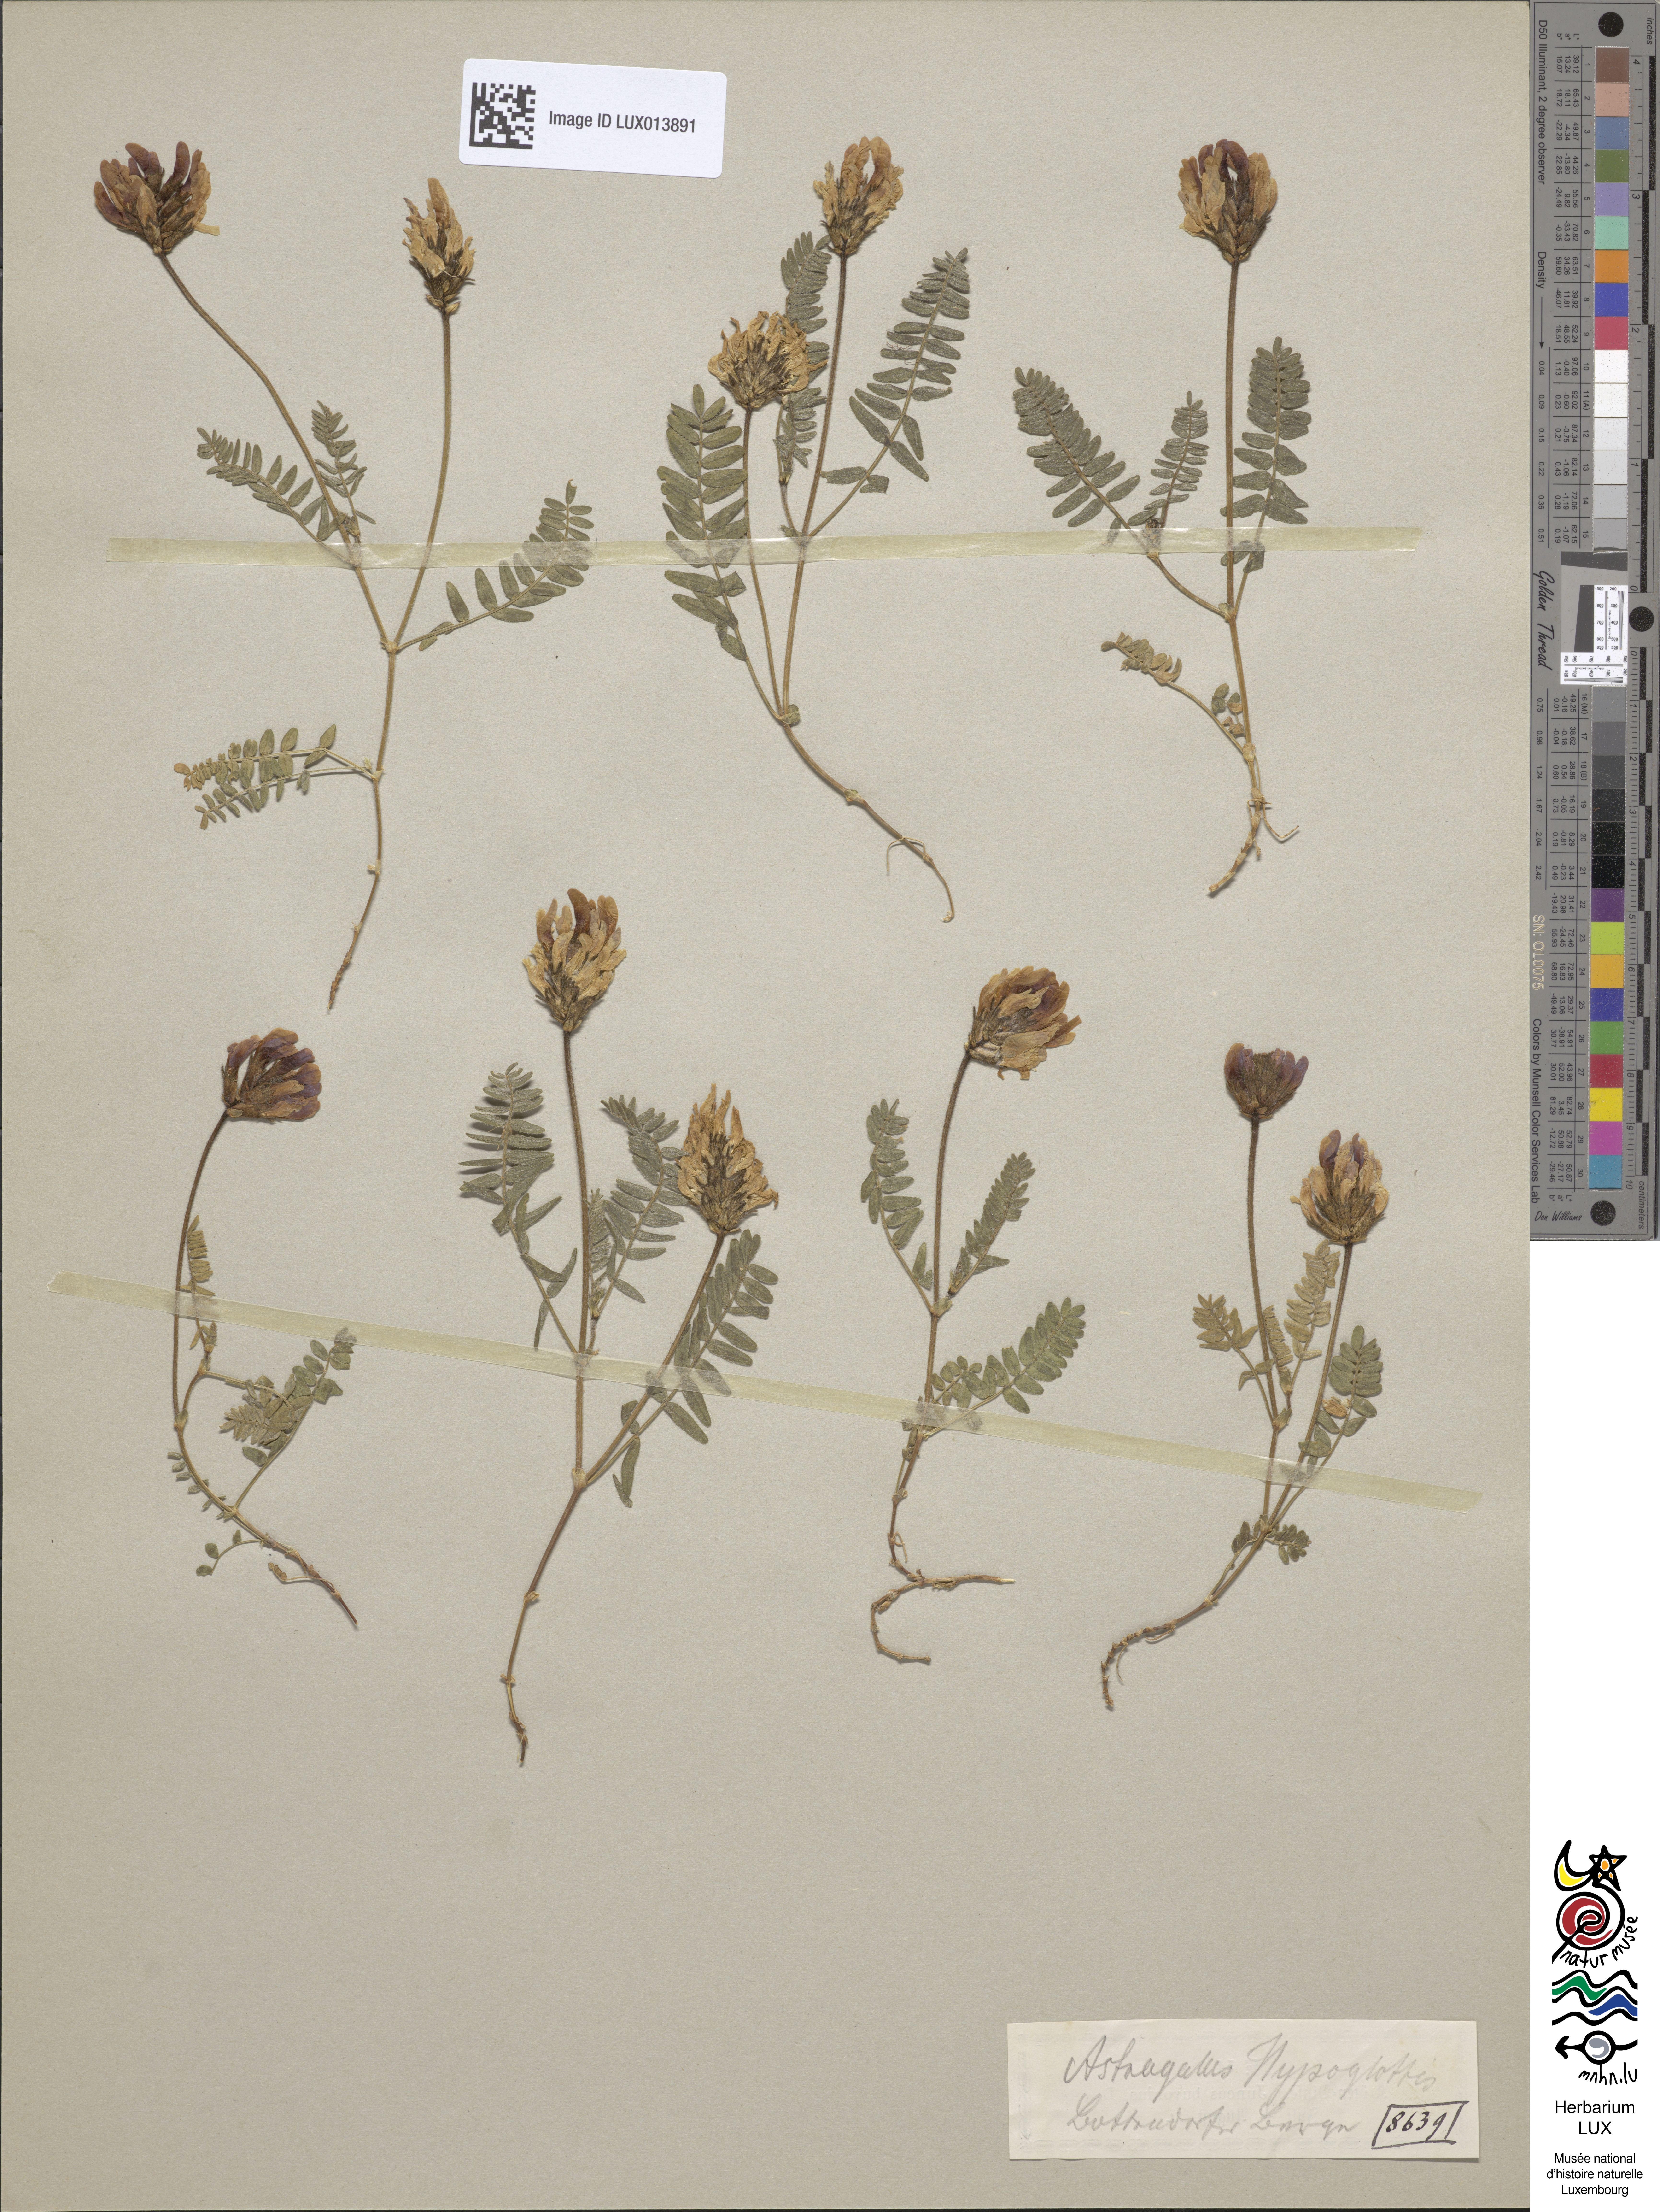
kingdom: Plantae
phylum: Tracheophyta
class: Magnoliopsida
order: Fabales
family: Fabaceae
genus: Astragalus
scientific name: Astragalus hypoglottis
